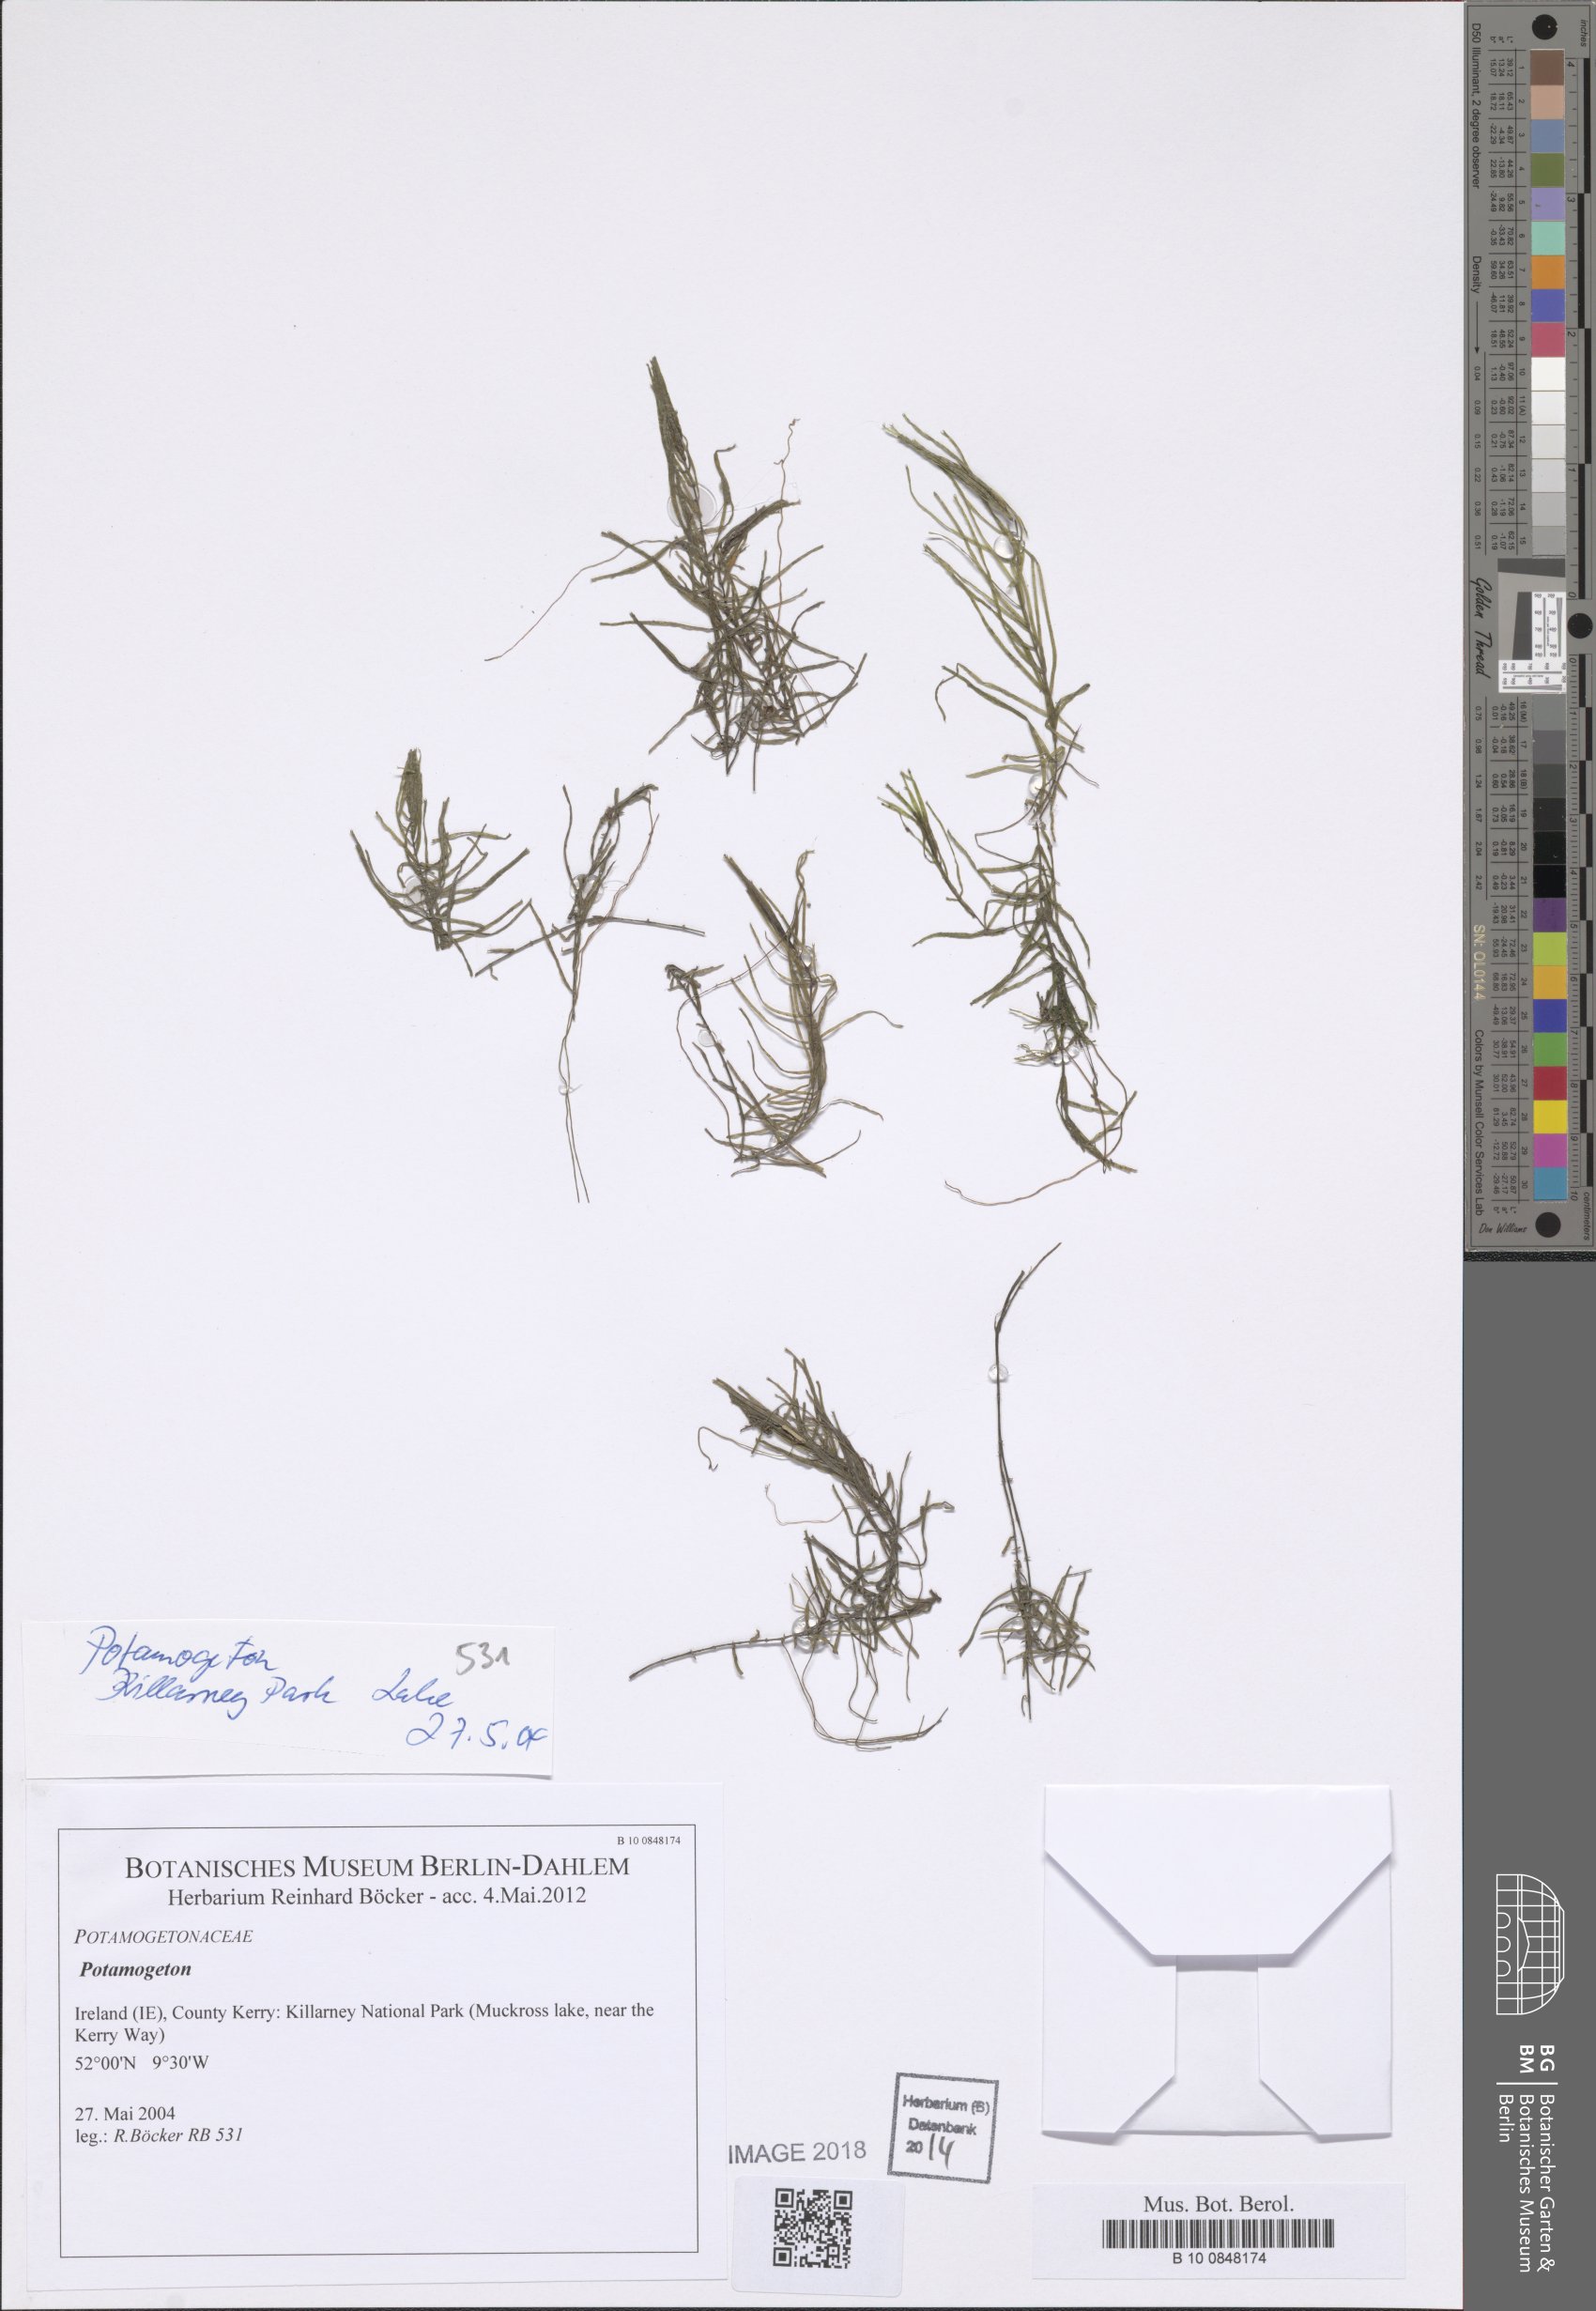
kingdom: Plantae
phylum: Tracheophyta
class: Magnoliopsida
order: Lamiales
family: Plantaginaceae
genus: Callitriche
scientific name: Callitriche brutia
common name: Pedunculate water-starwort
